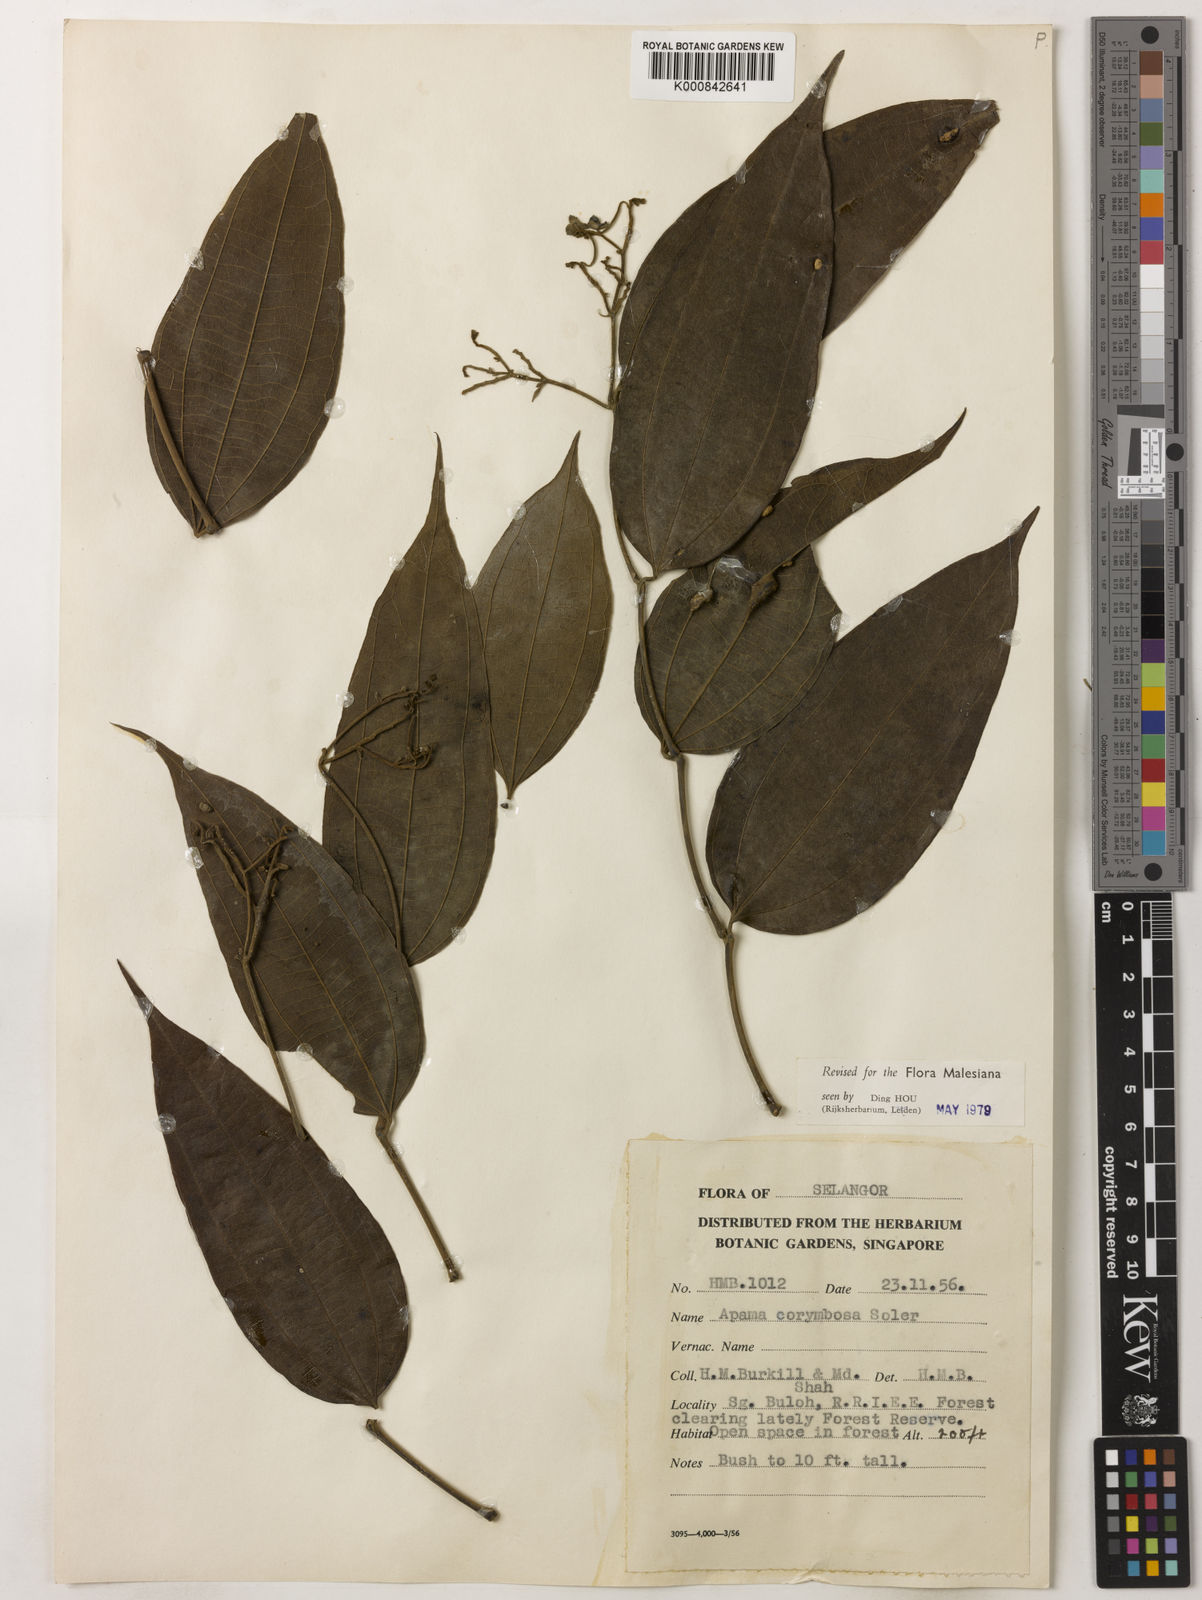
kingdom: Plantae
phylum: Tracheophyta
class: Magnoliopsida
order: Piperales
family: Aristolochiaceae
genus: Thottea
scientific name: Thottea piperiformis
